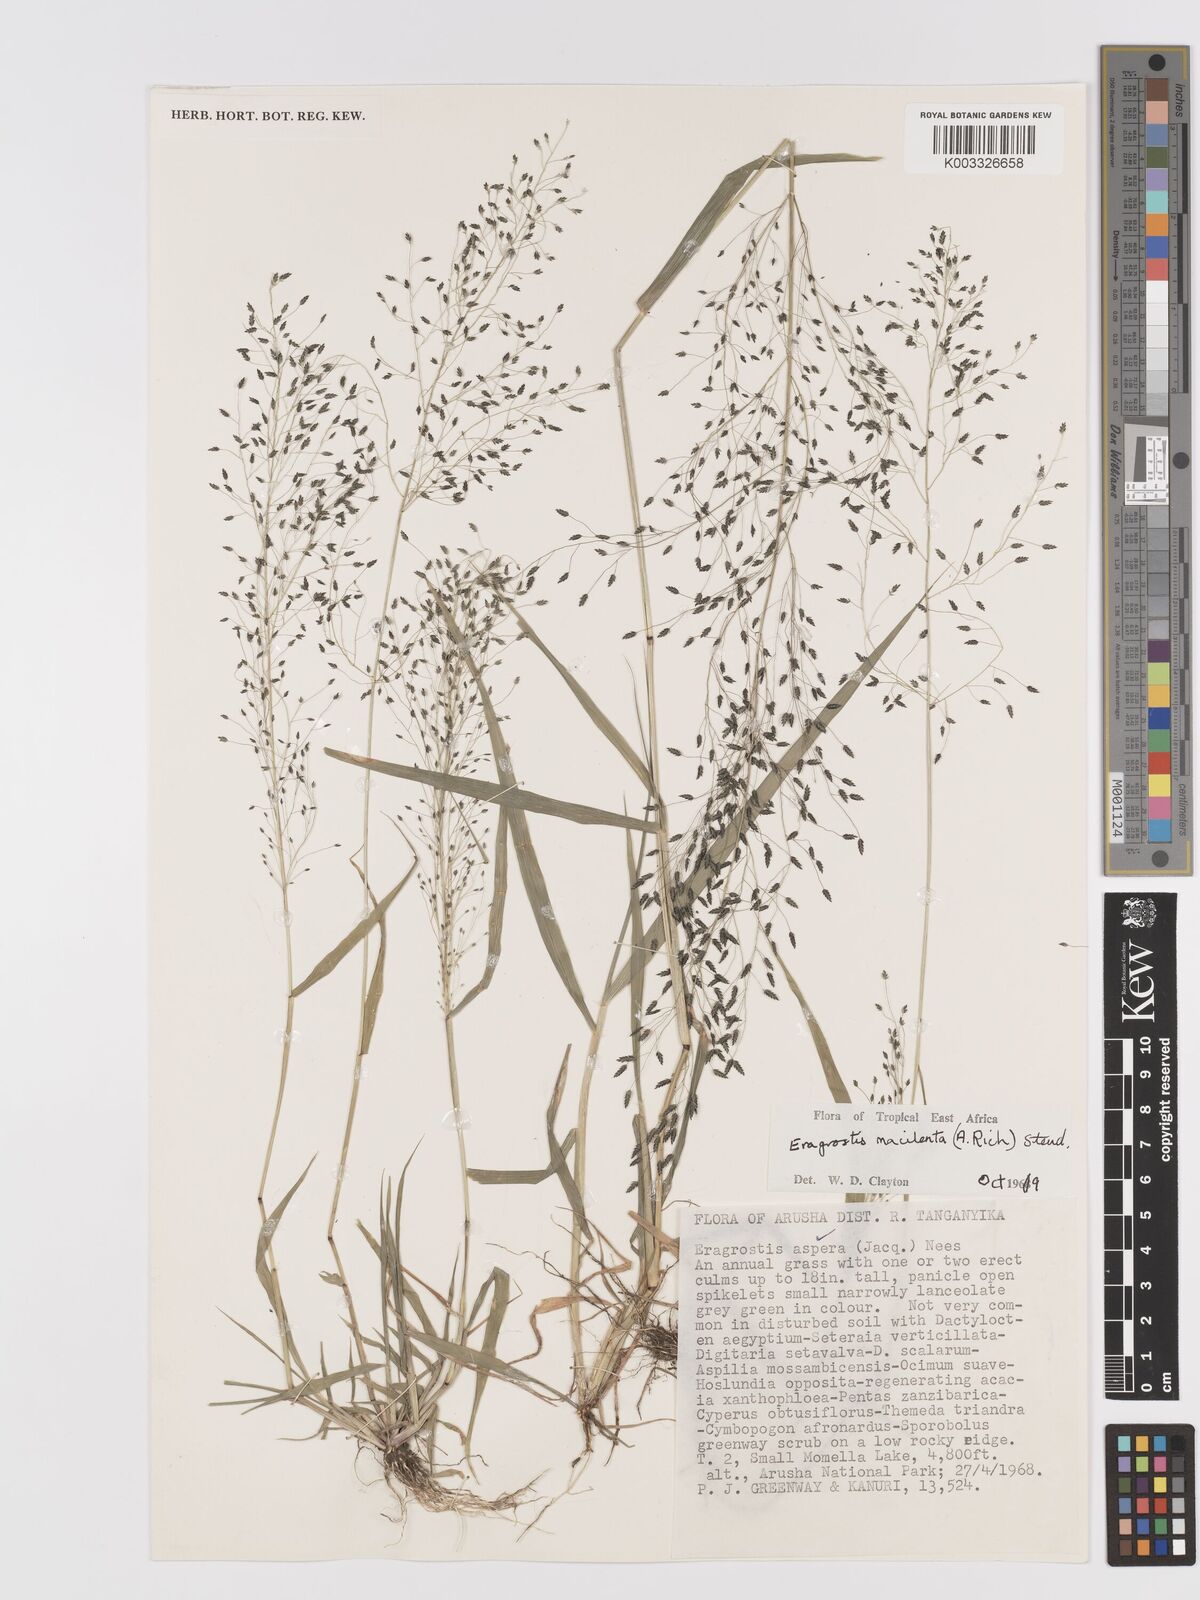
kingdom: Plantae
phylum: Tracheophyta
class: Liliopsida
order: Poales
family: Poaceae
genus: Eragrostis
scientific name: Eragrostis macilenta
